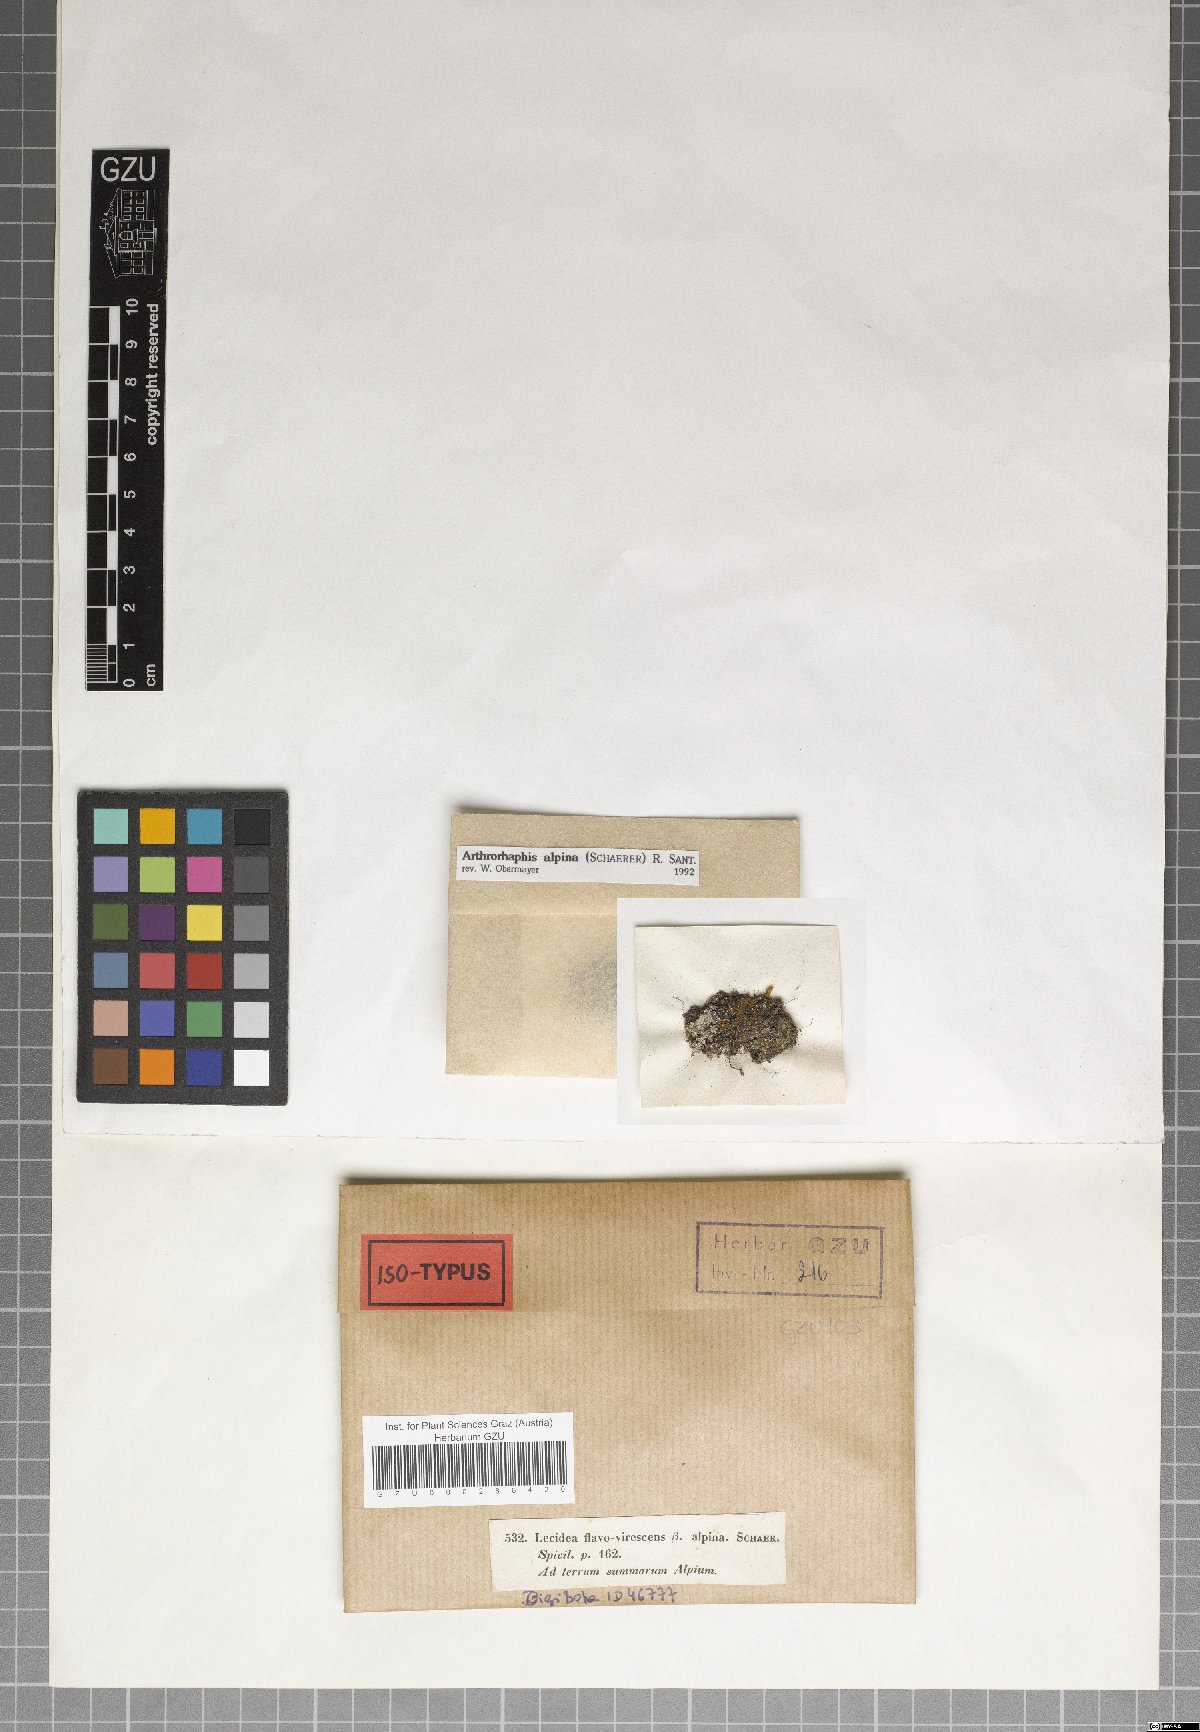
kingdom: Fungi
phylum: Ascomycota
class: Lecanoromycetes
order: Umbilicariales
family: Arthrorhaphidaceae
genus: Arthrorhaphis
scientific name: Arthrorhaphis alpina
